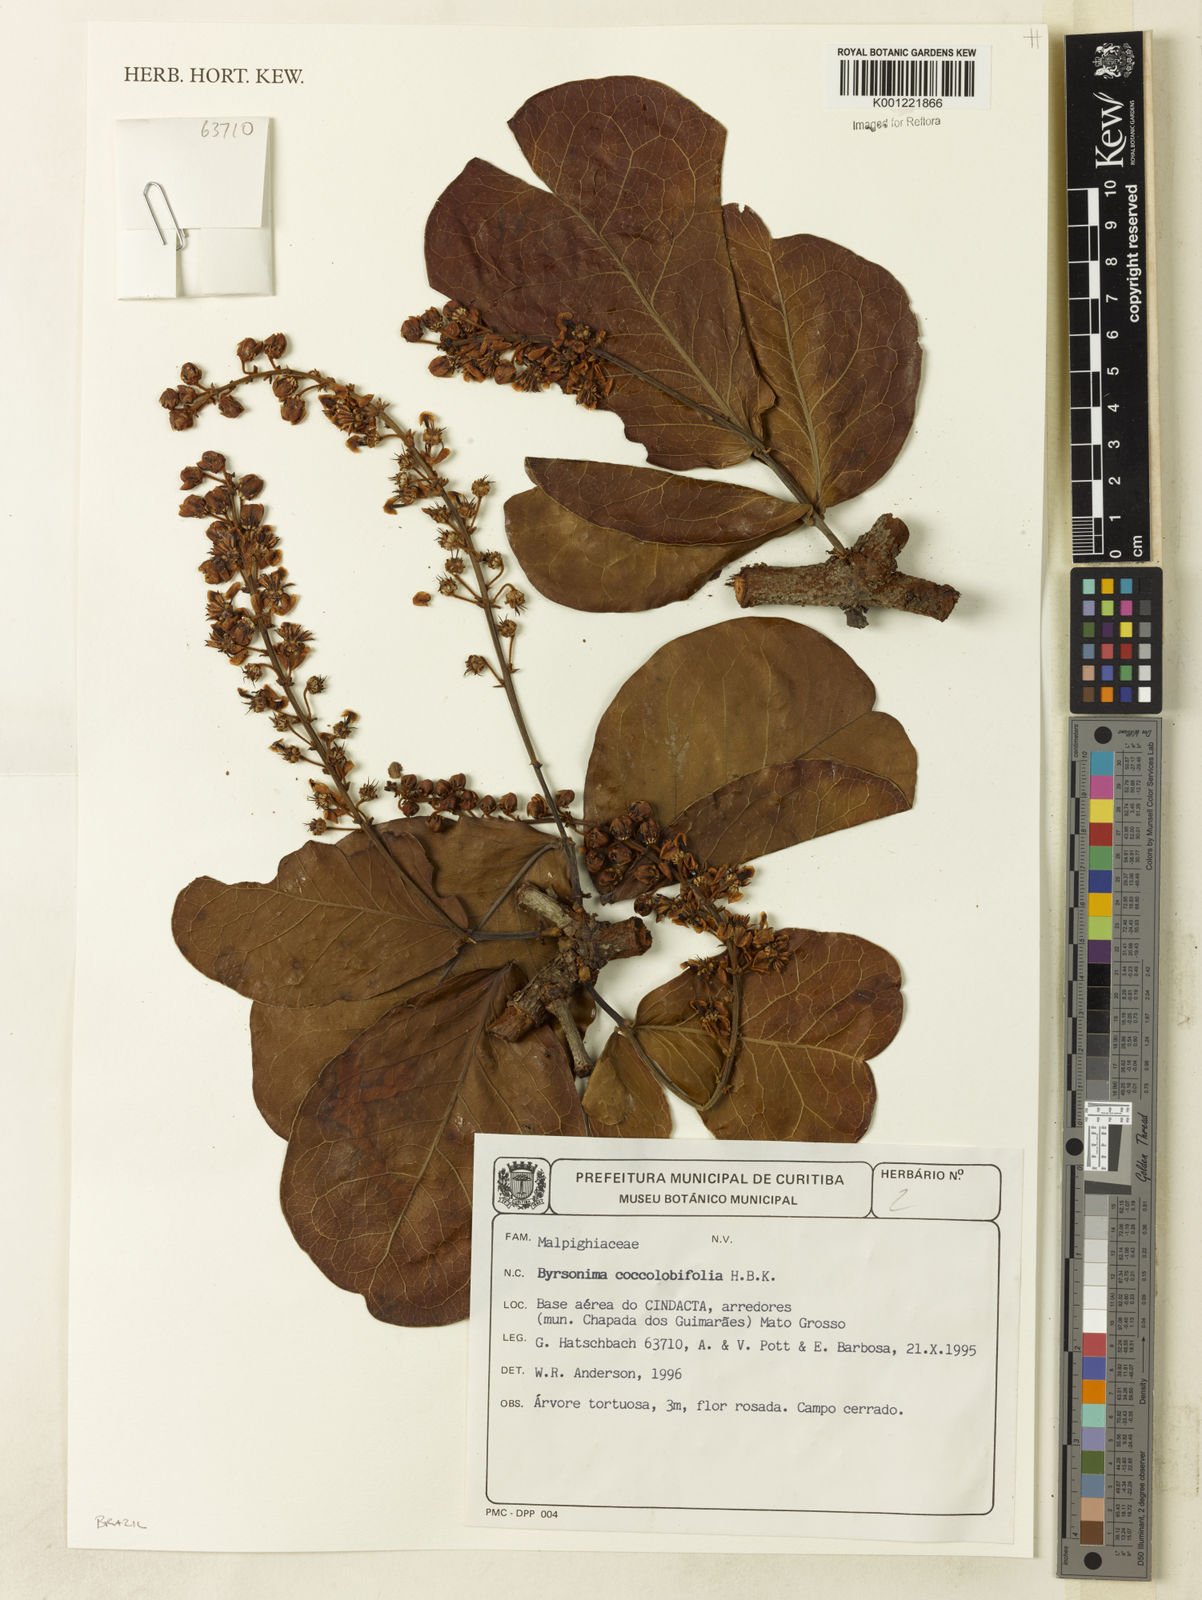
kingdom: Plantae
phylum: Tracheophyta
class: Magnoliopsida
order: Malpighiales
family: Malpighiaceae
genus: Byrsonima
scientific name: Byrsonima coccolobifolia
